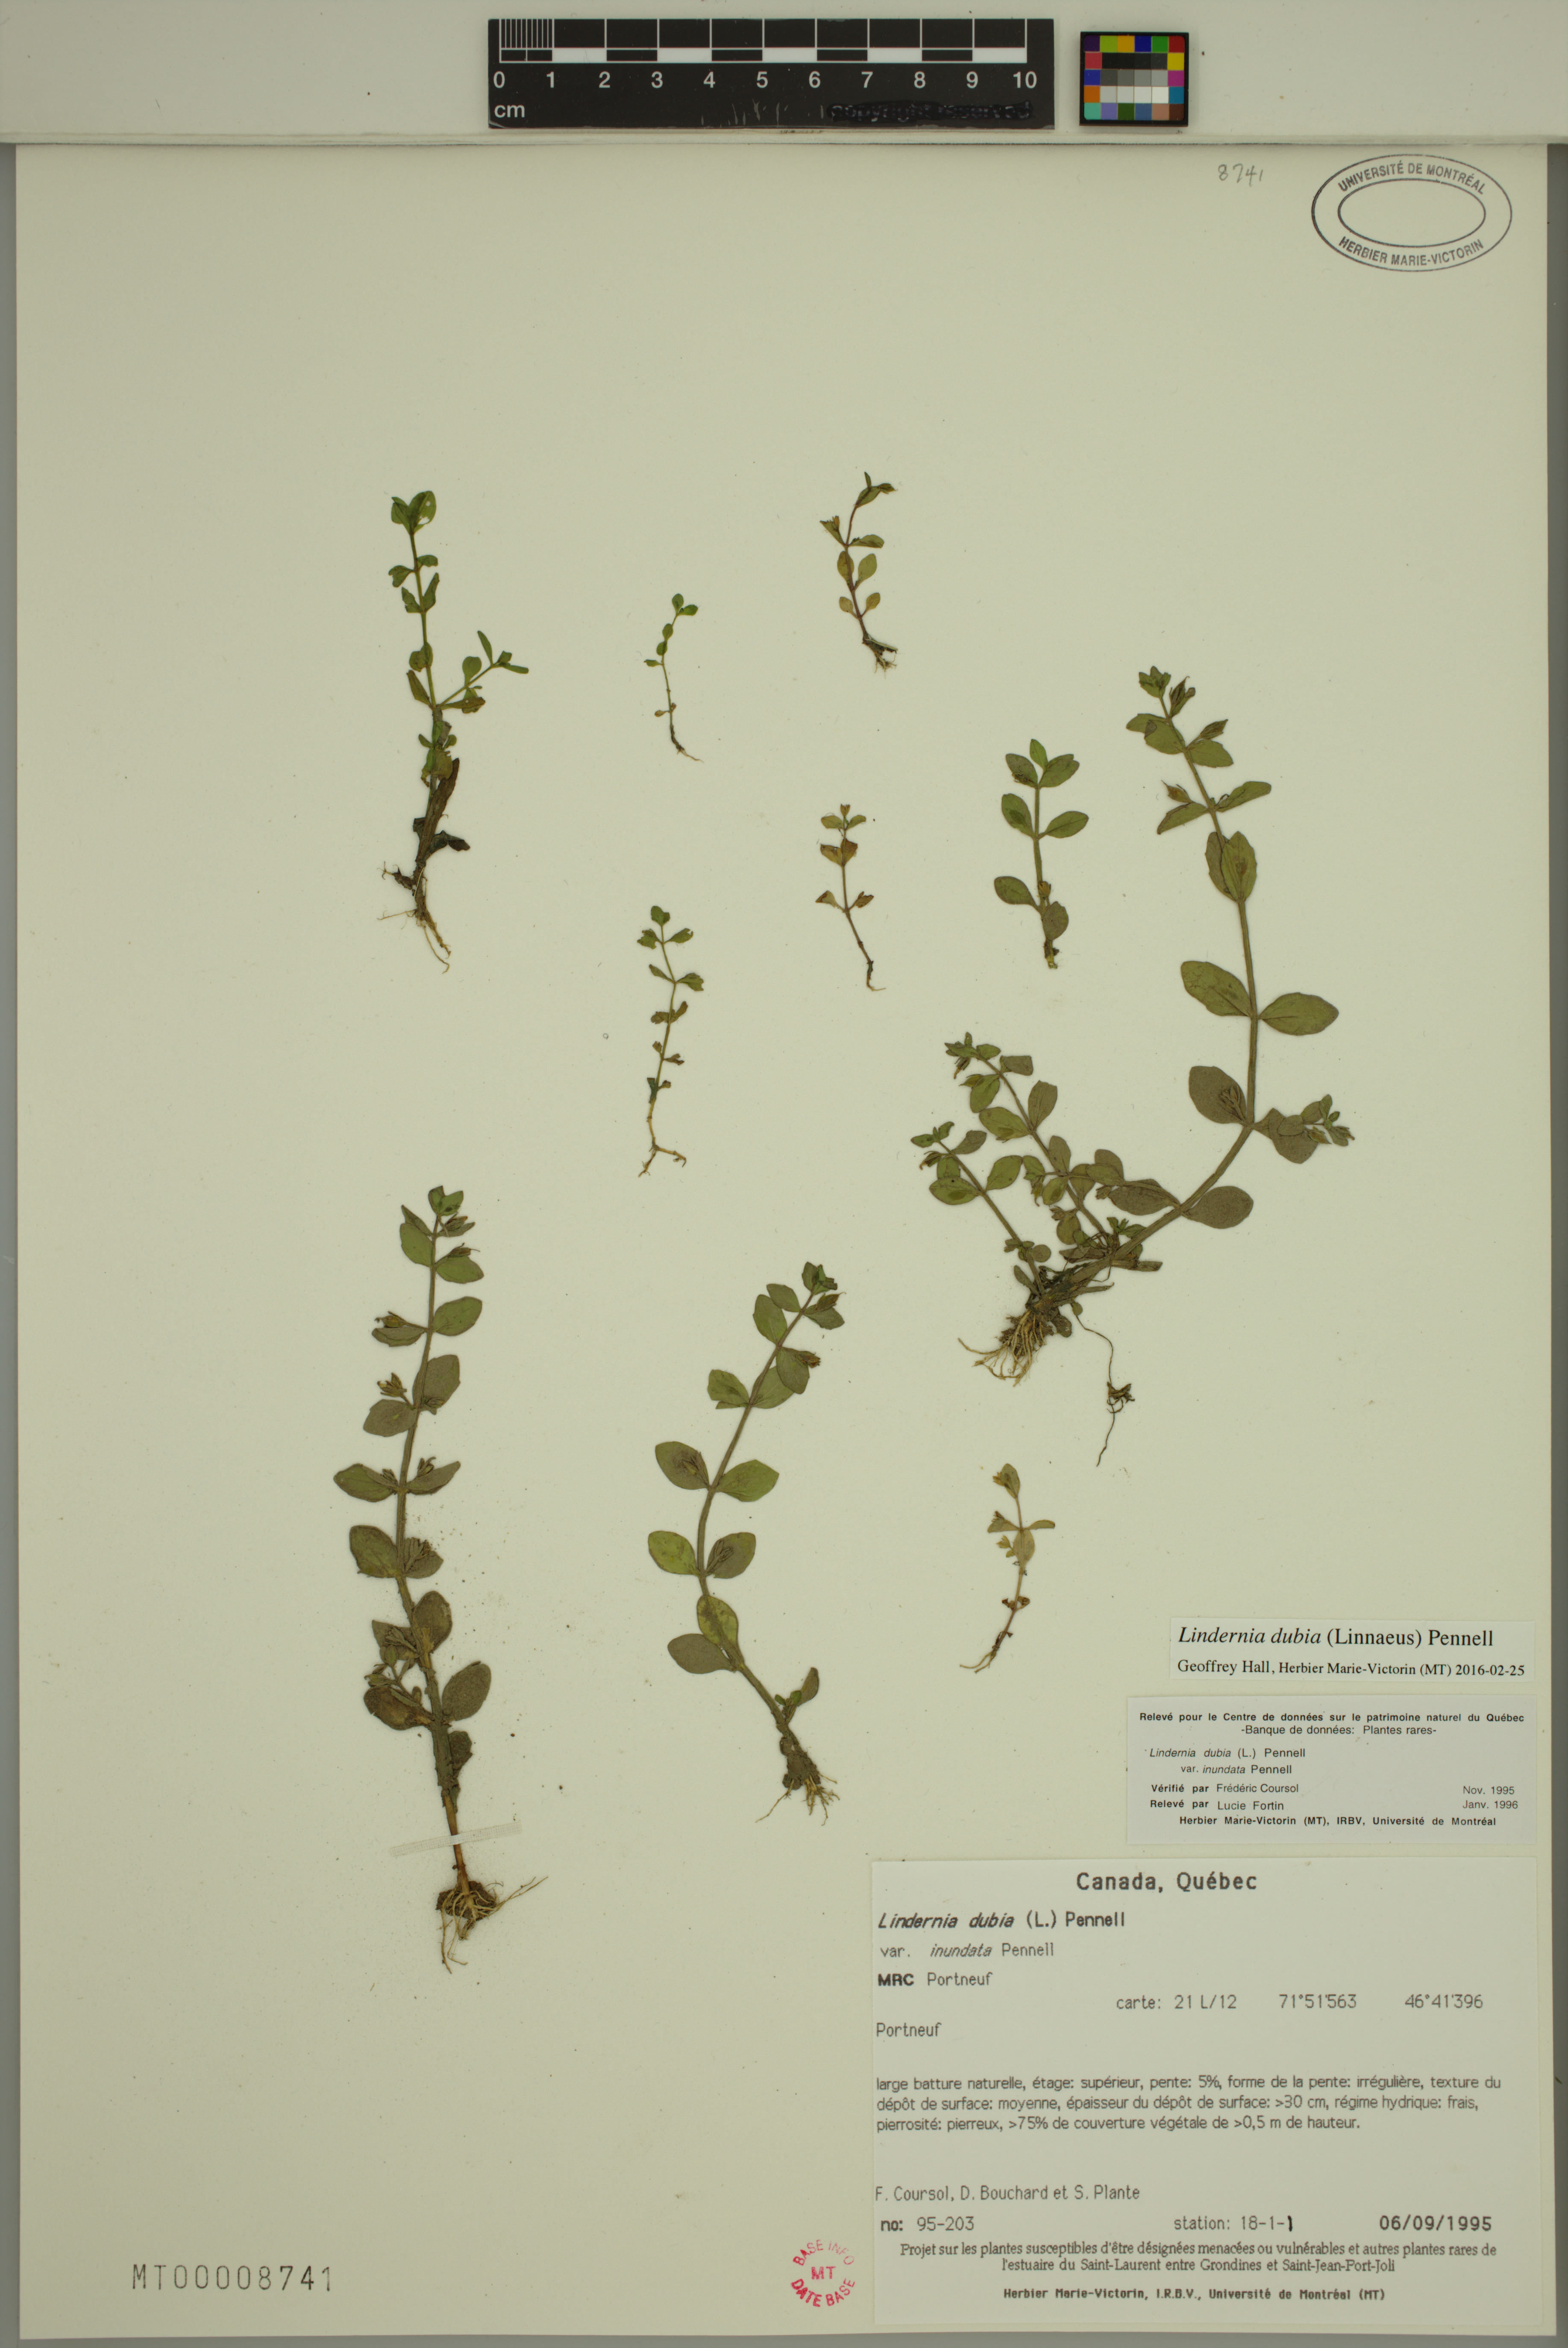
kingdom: Plantae
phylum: Tracheophyta
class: Magnoliopsida
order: Lamiales
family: Linderniaceae
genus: Lindernia
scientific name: Lindernia dubia
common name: Annual false pimpernel
